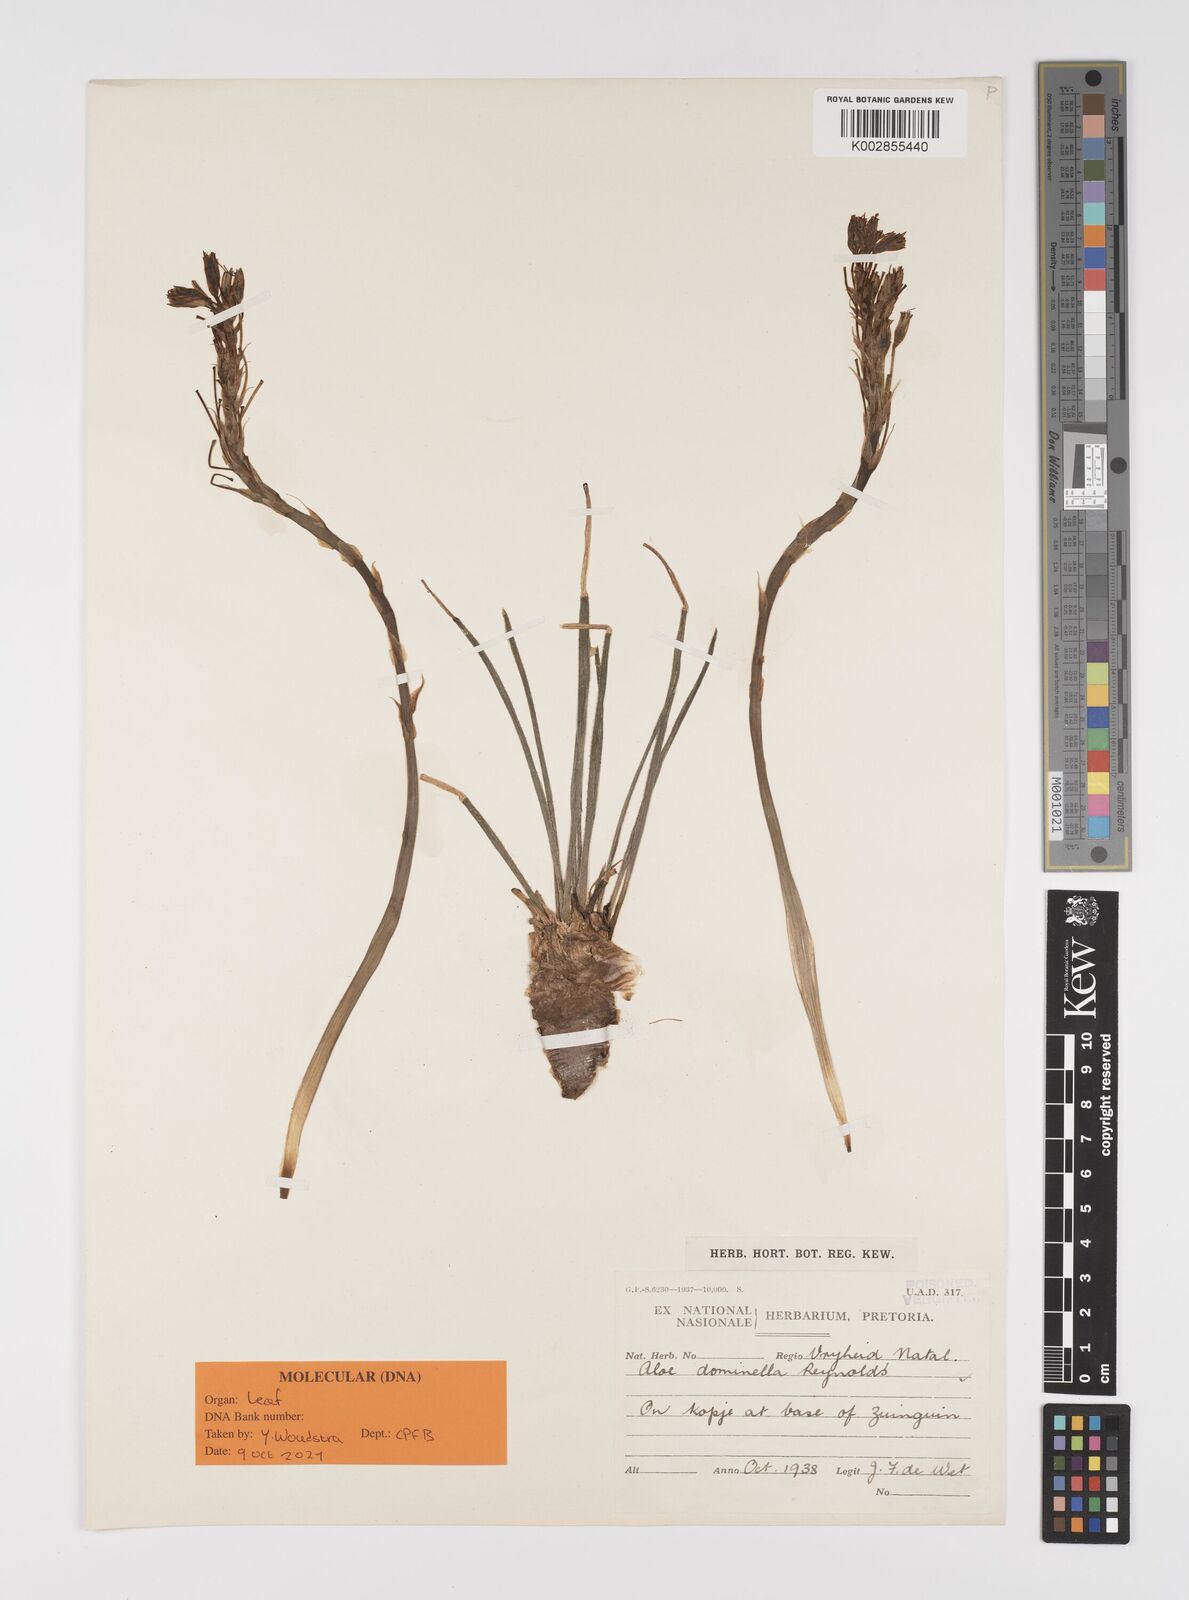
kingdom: Plantae
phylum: Tracheophyta
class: Liliopsida
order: Asparagales
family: Asphodelaceae
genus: Aloe
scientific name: Aloe dominella
